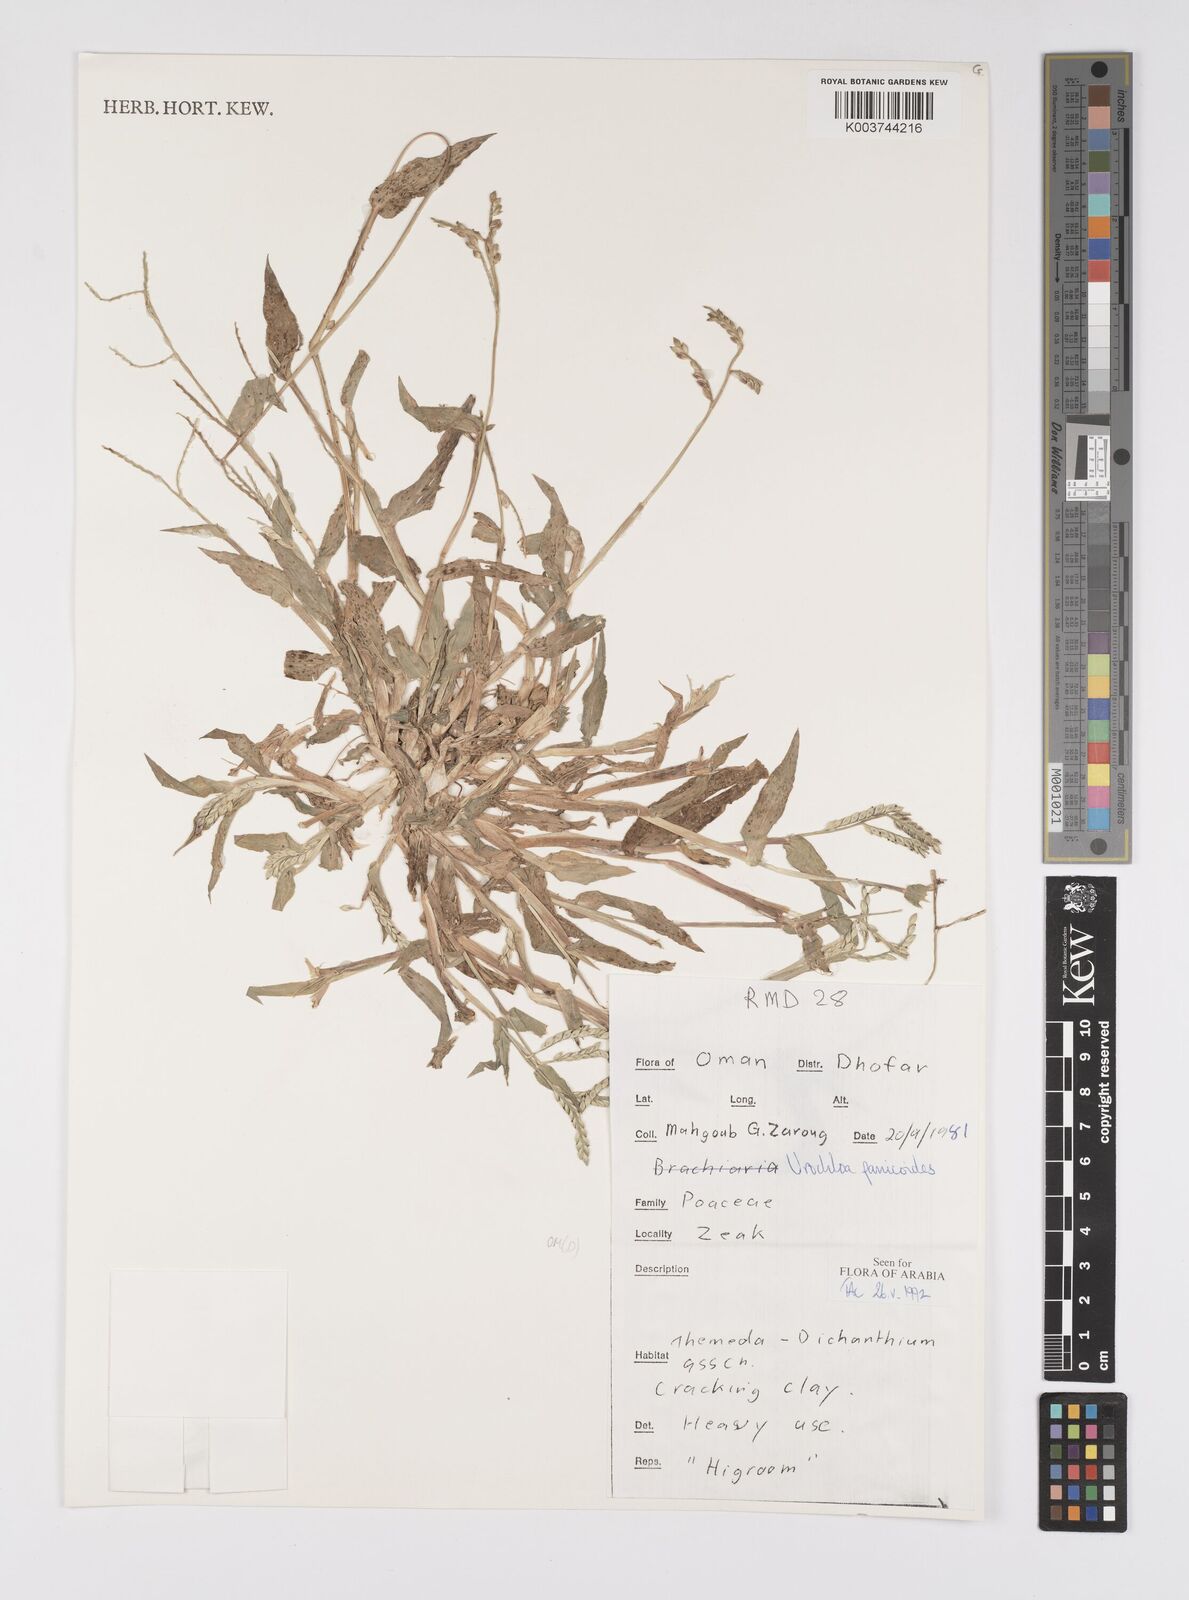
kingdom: Plantae
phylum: Tracheophyta
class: Liliopsida
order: Poales
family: Poaceae
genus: Urochloa
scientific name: Urochloa panicoides
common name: Sharp-flowered signal-grass
